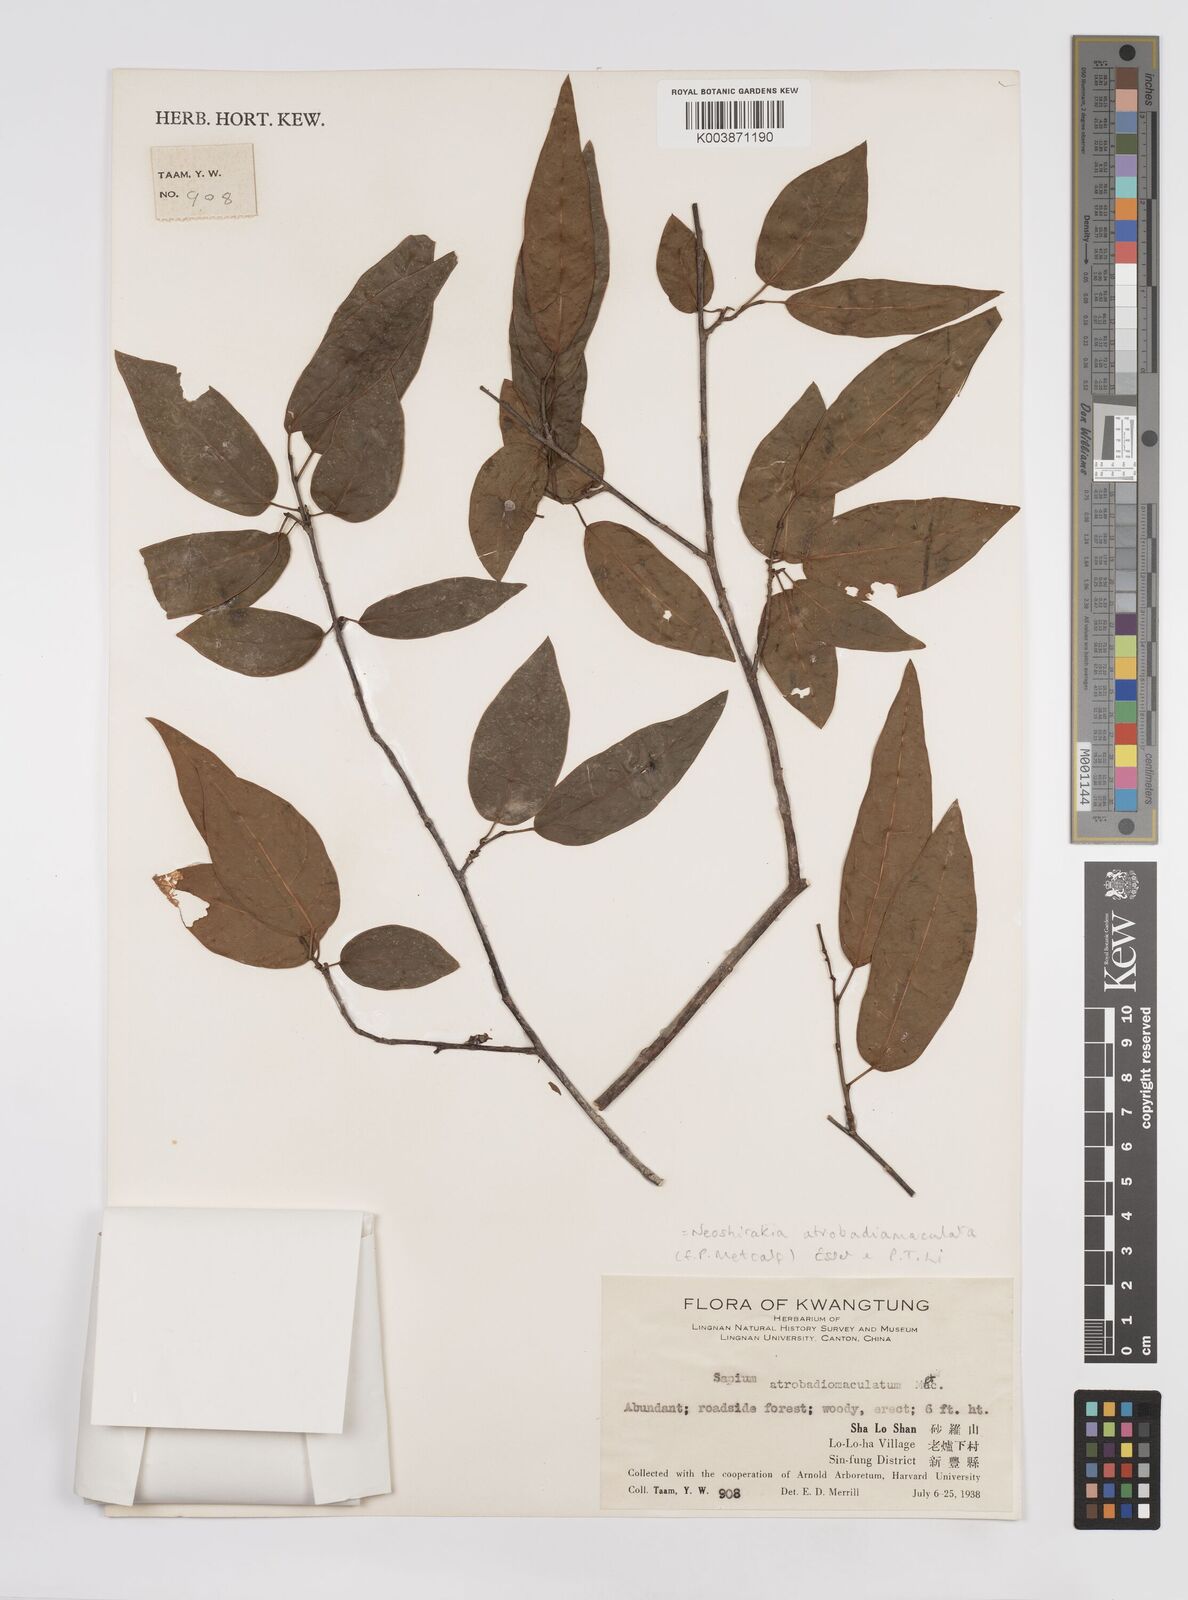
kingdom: Plantae
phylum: Tracheophyta
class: Magnoliopsida
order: Malpighiales
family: Euphorbiaceae
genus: Neoshirakia
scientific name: Neoshirakia atrobadiomaculata
